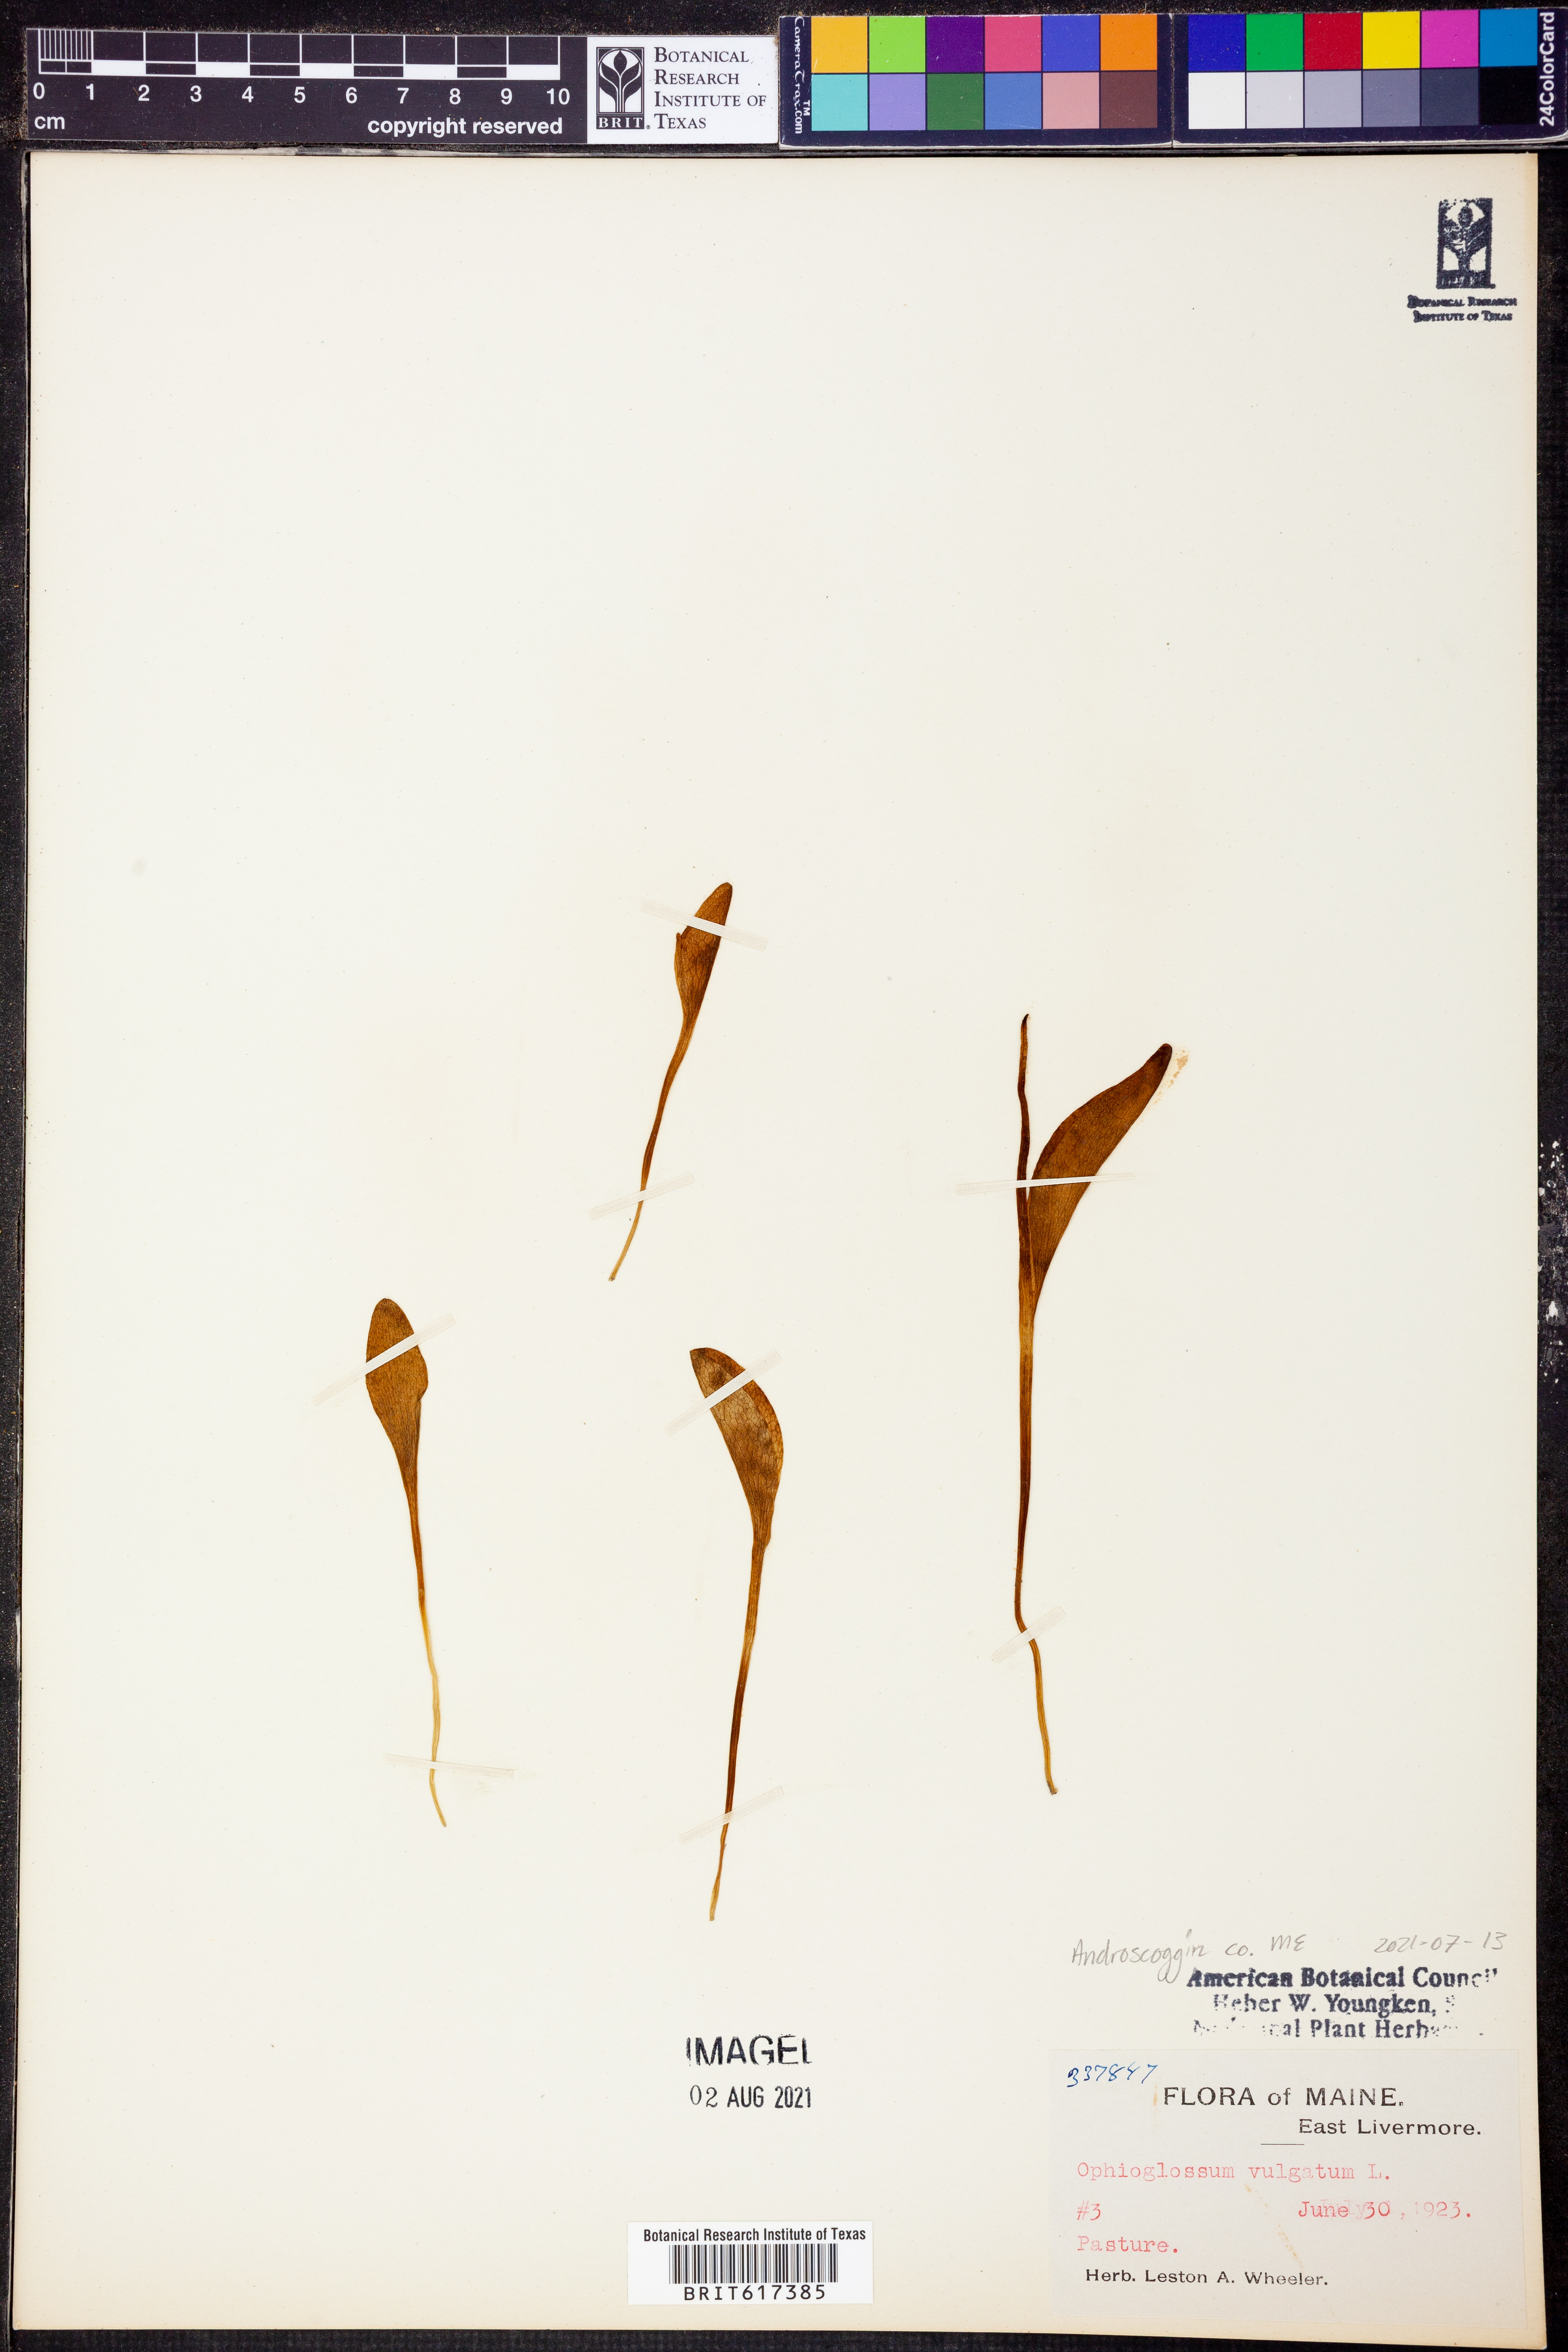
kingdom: Plantae
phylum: Tracheophyta
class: Polypodiopsida
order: Ophioglossales
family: Ophioglossaceae
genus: Ophioglossum
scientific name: Ophioglossum vulgatum
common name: Adder's-tongue
